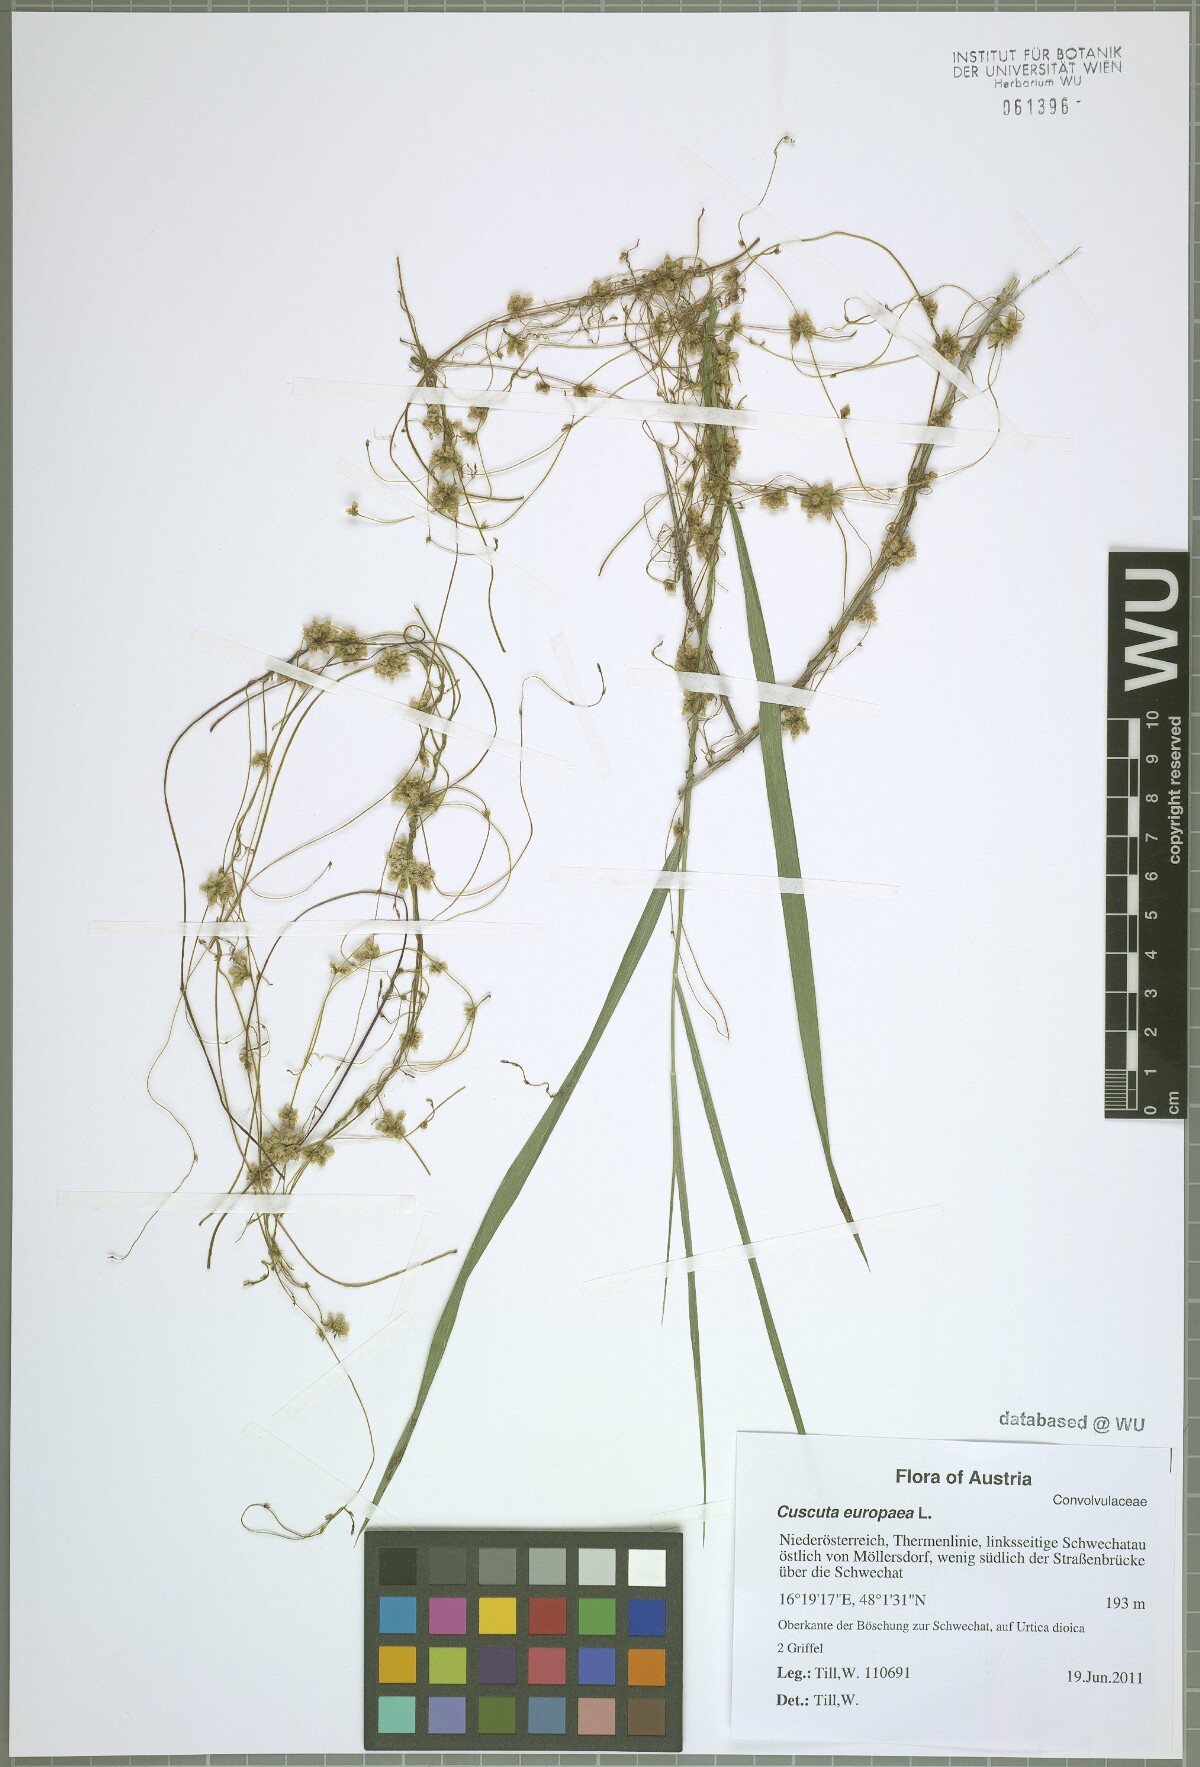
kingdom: Plantae
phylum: Tracheophyta
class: Magnoliopsida
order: Solanales
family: Convolvulaceae
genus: Cuscuta
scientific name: Cuscuta europaea
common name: Greater dodder
